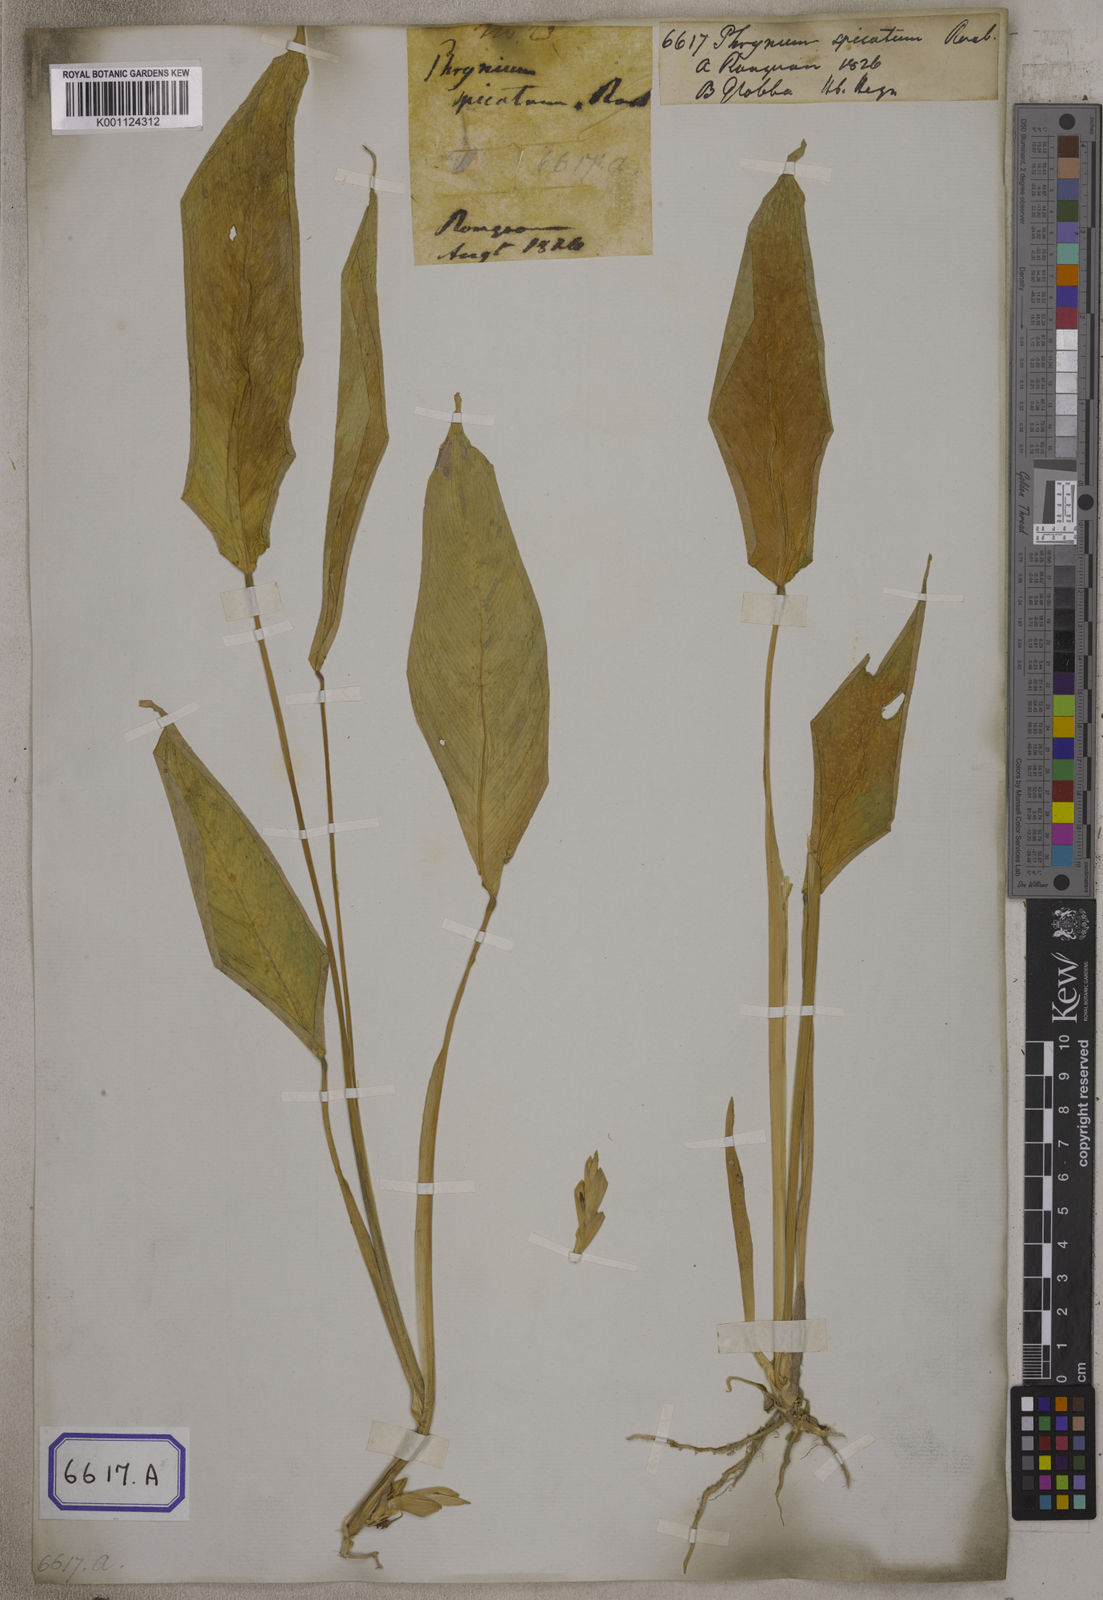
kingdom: Plantae
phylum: Tracheophyta
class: Liliopsida
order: Zingiberales
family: Marantaceae
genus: Stachyphrynium
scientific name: Stachyphrynium spicatum
